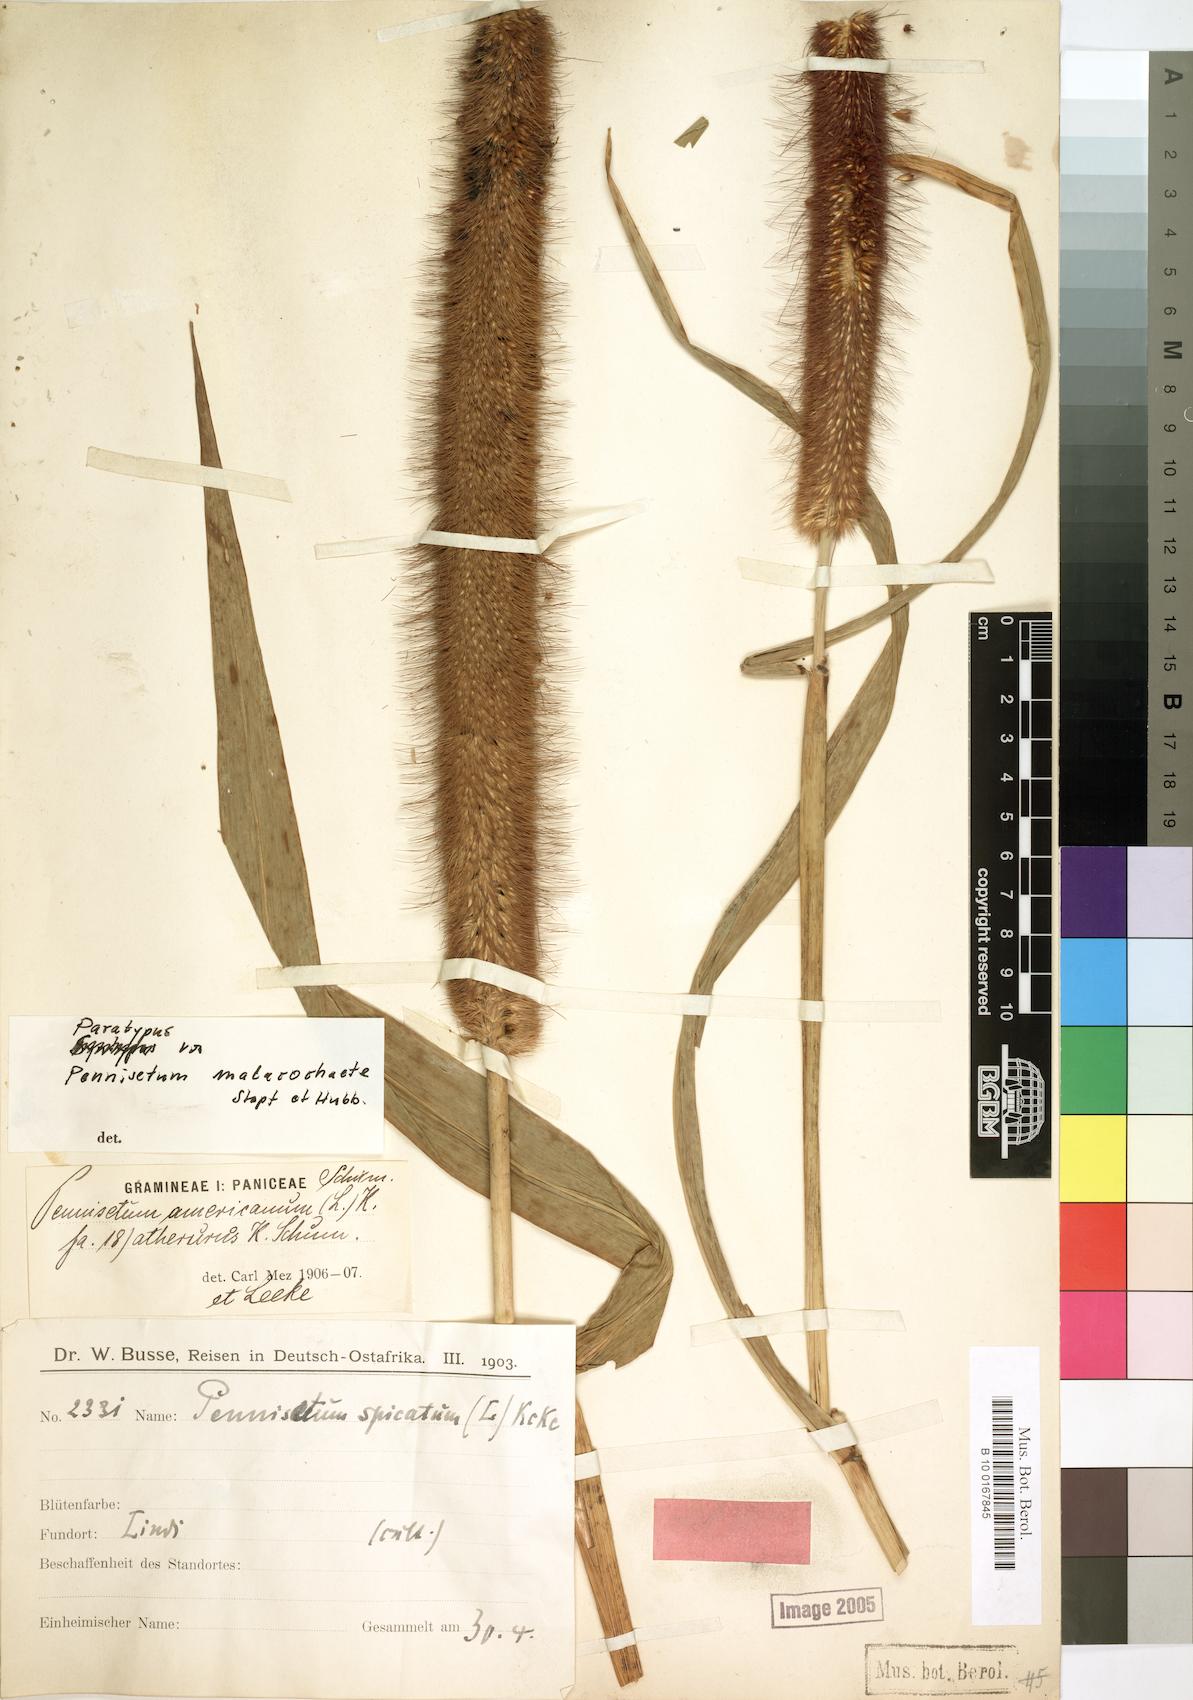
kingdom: Plantae
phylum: Tracheophyta
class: Liliopsida
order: Poales
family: Poaceae
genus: Cenchrus
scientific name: Cenchrus americanus
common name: Pearl millet
